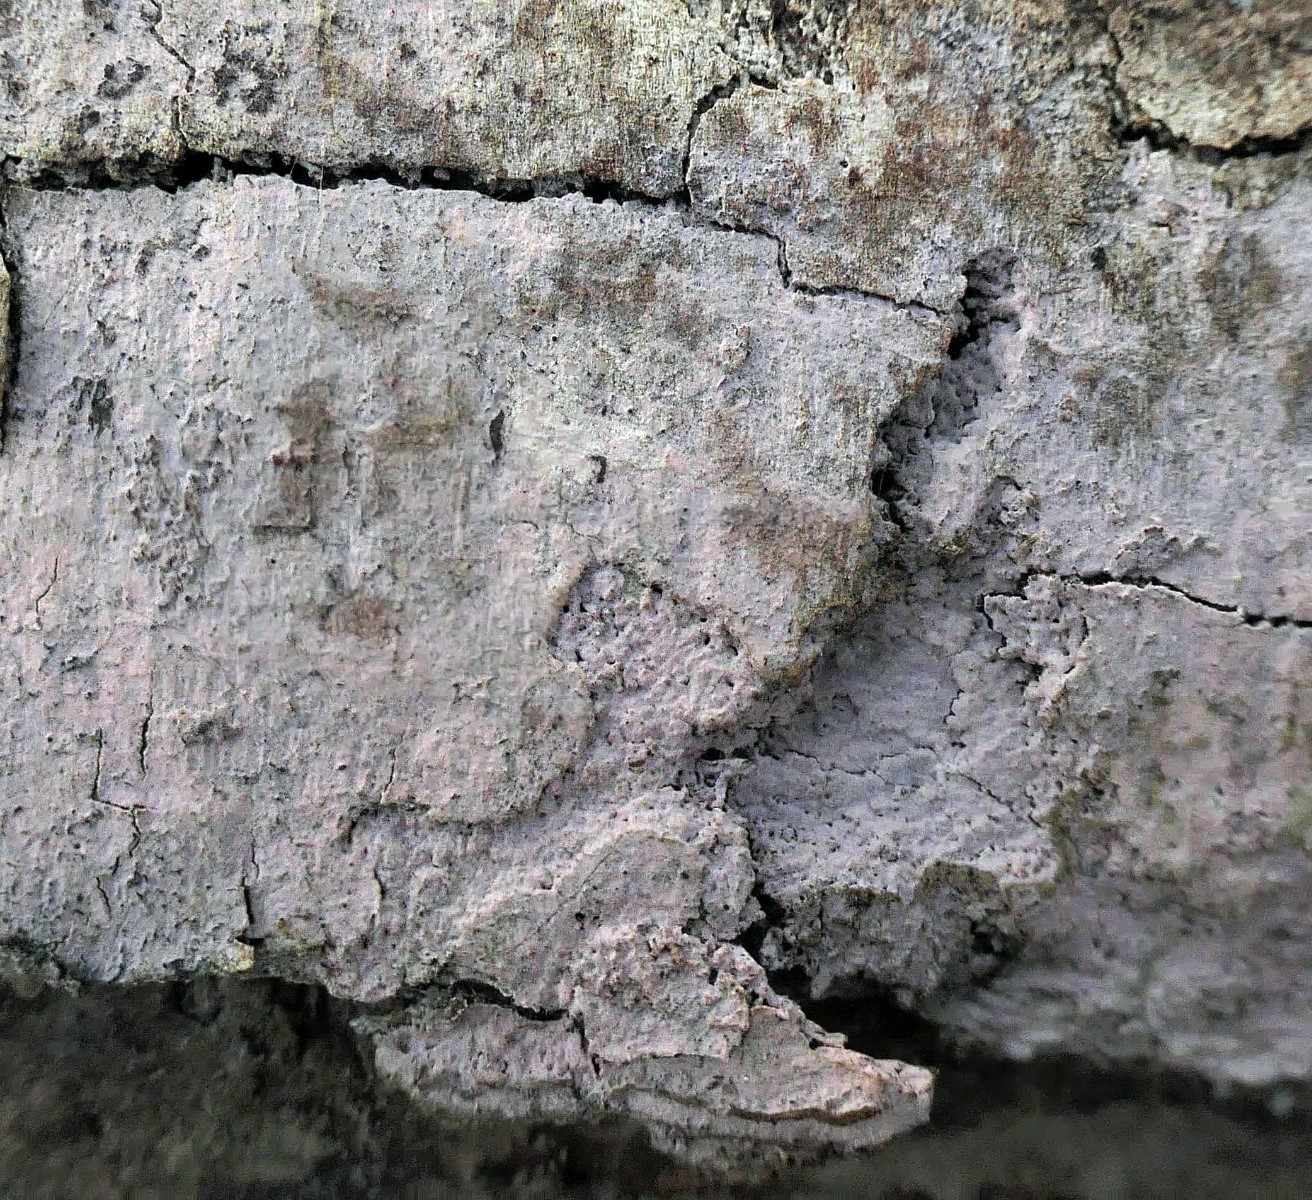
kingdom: Fungi
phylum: Basidiomycota
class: Agaricomycetes
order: Cantharellales
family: Tulasnellaceae
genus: Tulasnella
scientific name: Tulasnella violea
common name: violet ballonhinde
